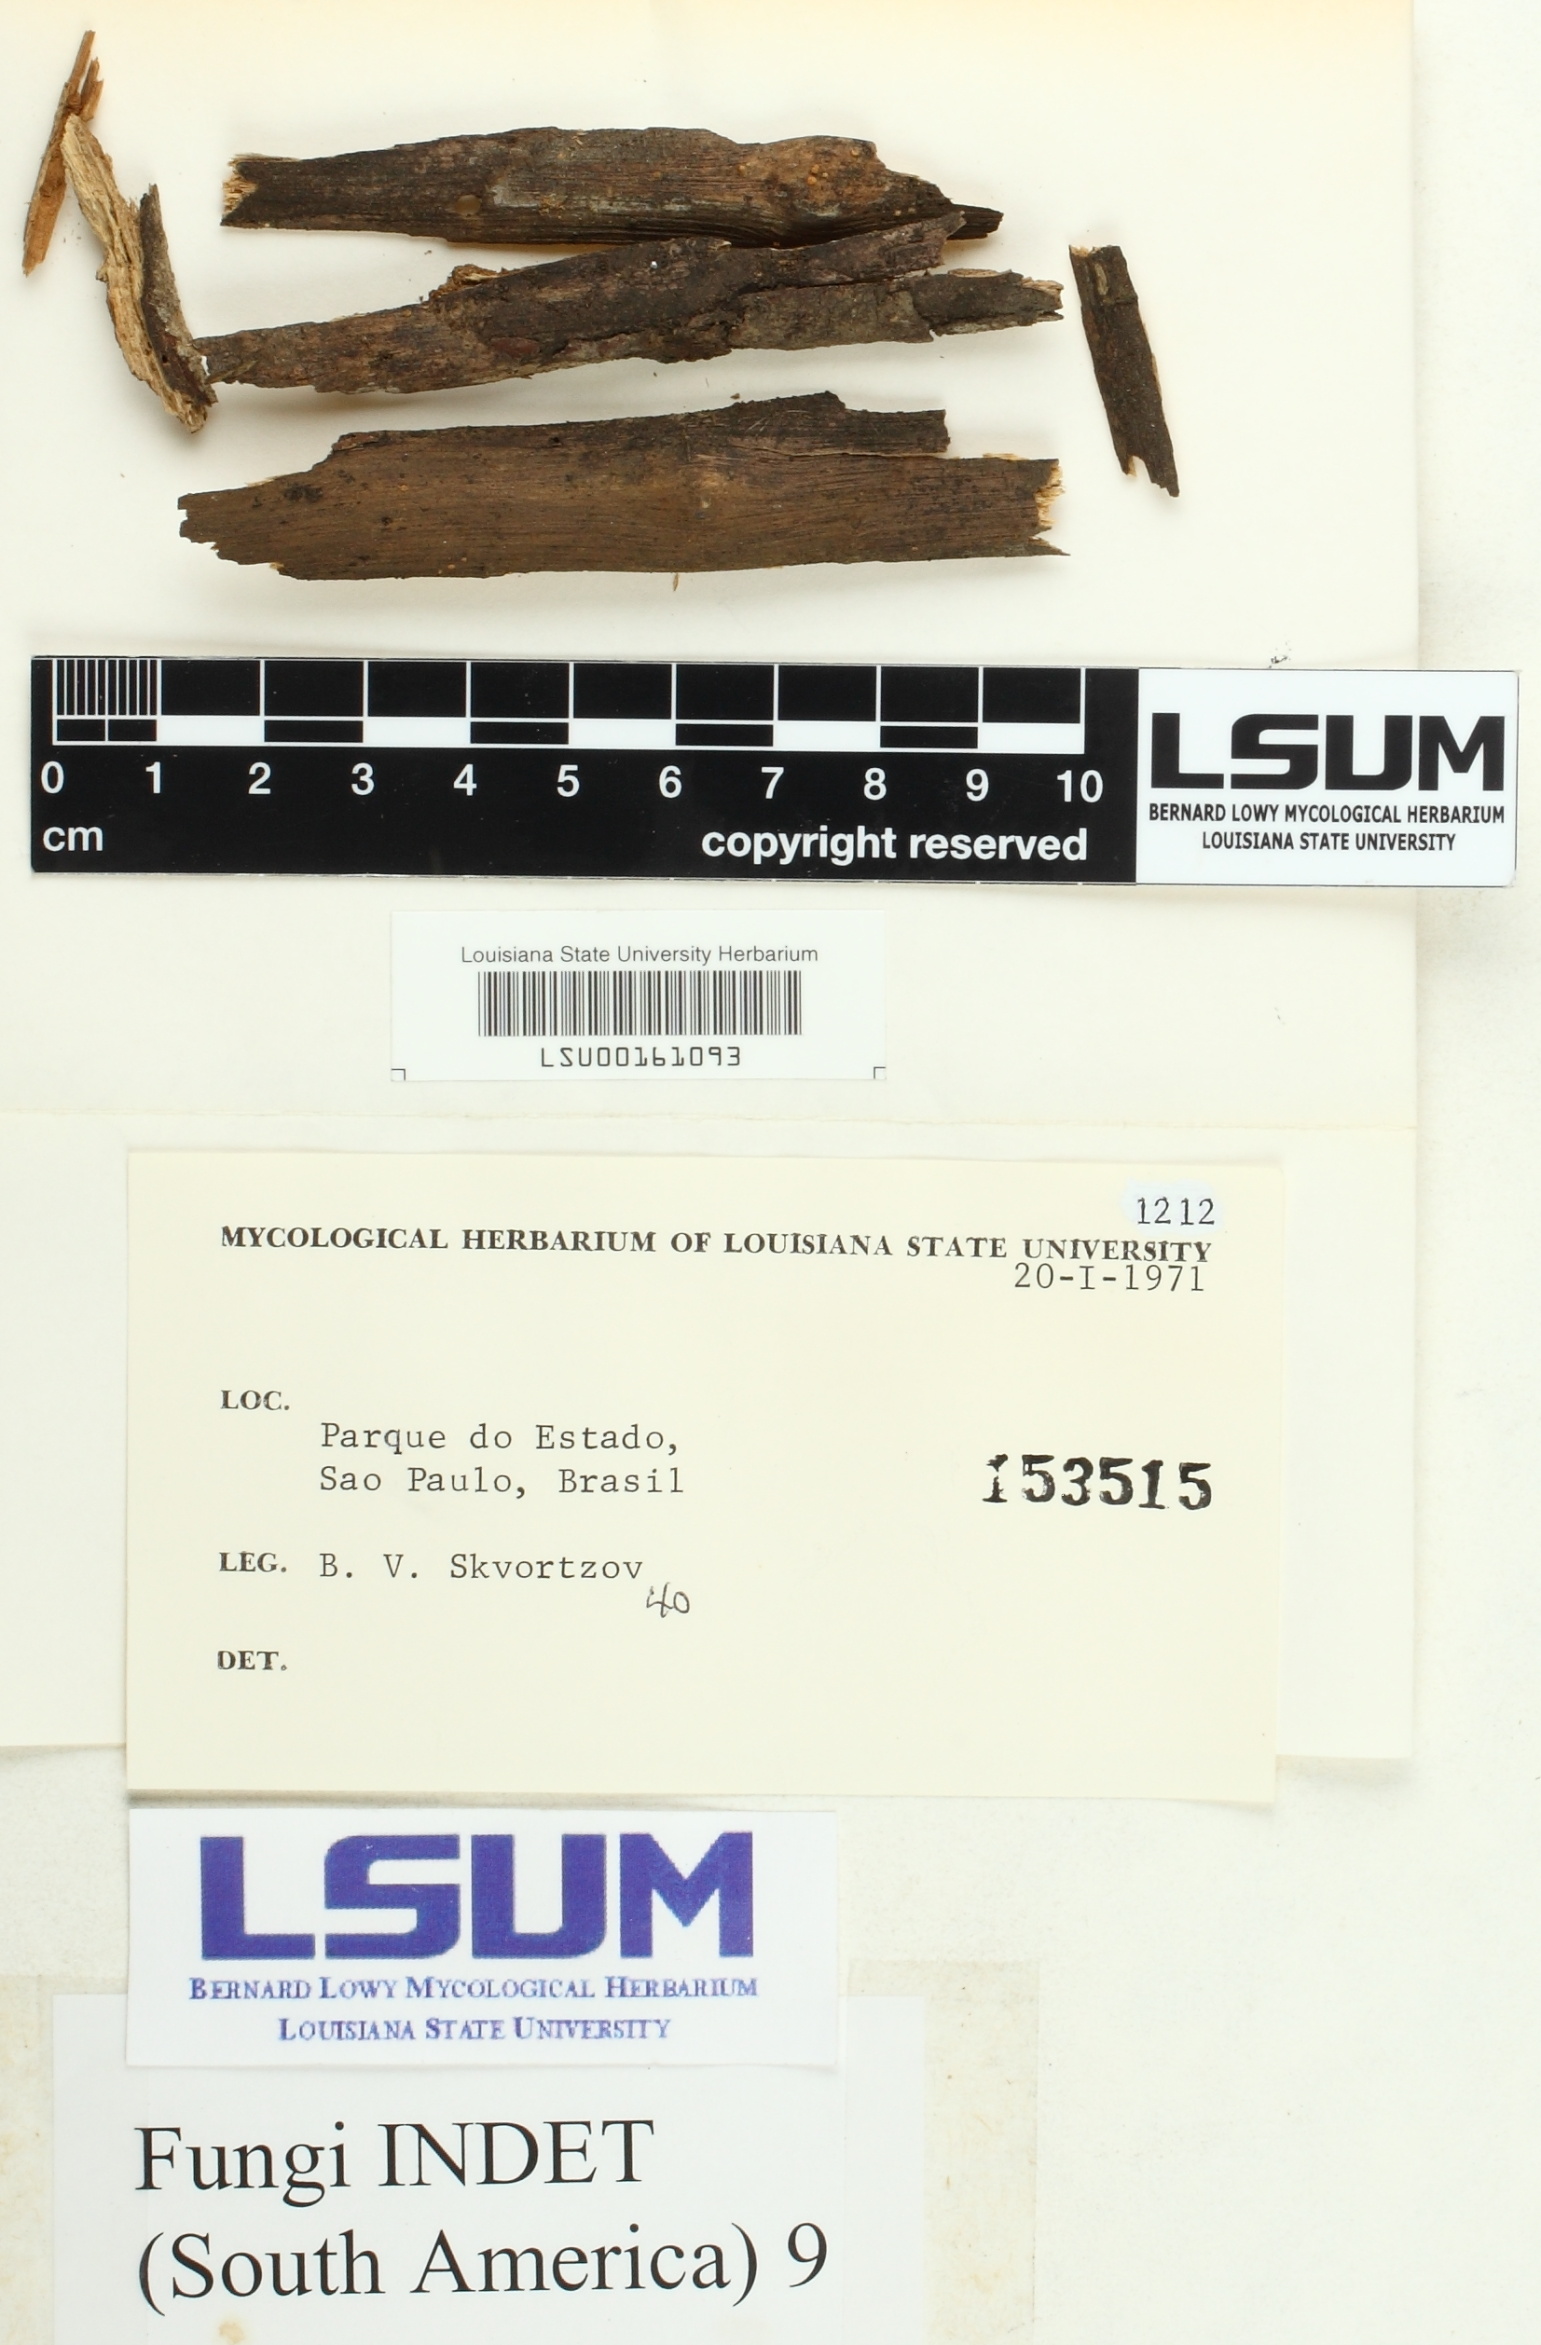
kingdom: Fungi
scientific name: Fungi
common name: Fungi
